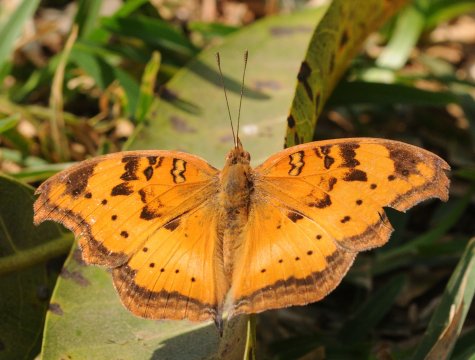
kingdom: Animalia
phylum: Arthropoda
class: Insecta
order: Lepidoptera
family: Nymphalidae
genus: Junonia
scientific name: Junonia cuama
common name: Paler Commodore
